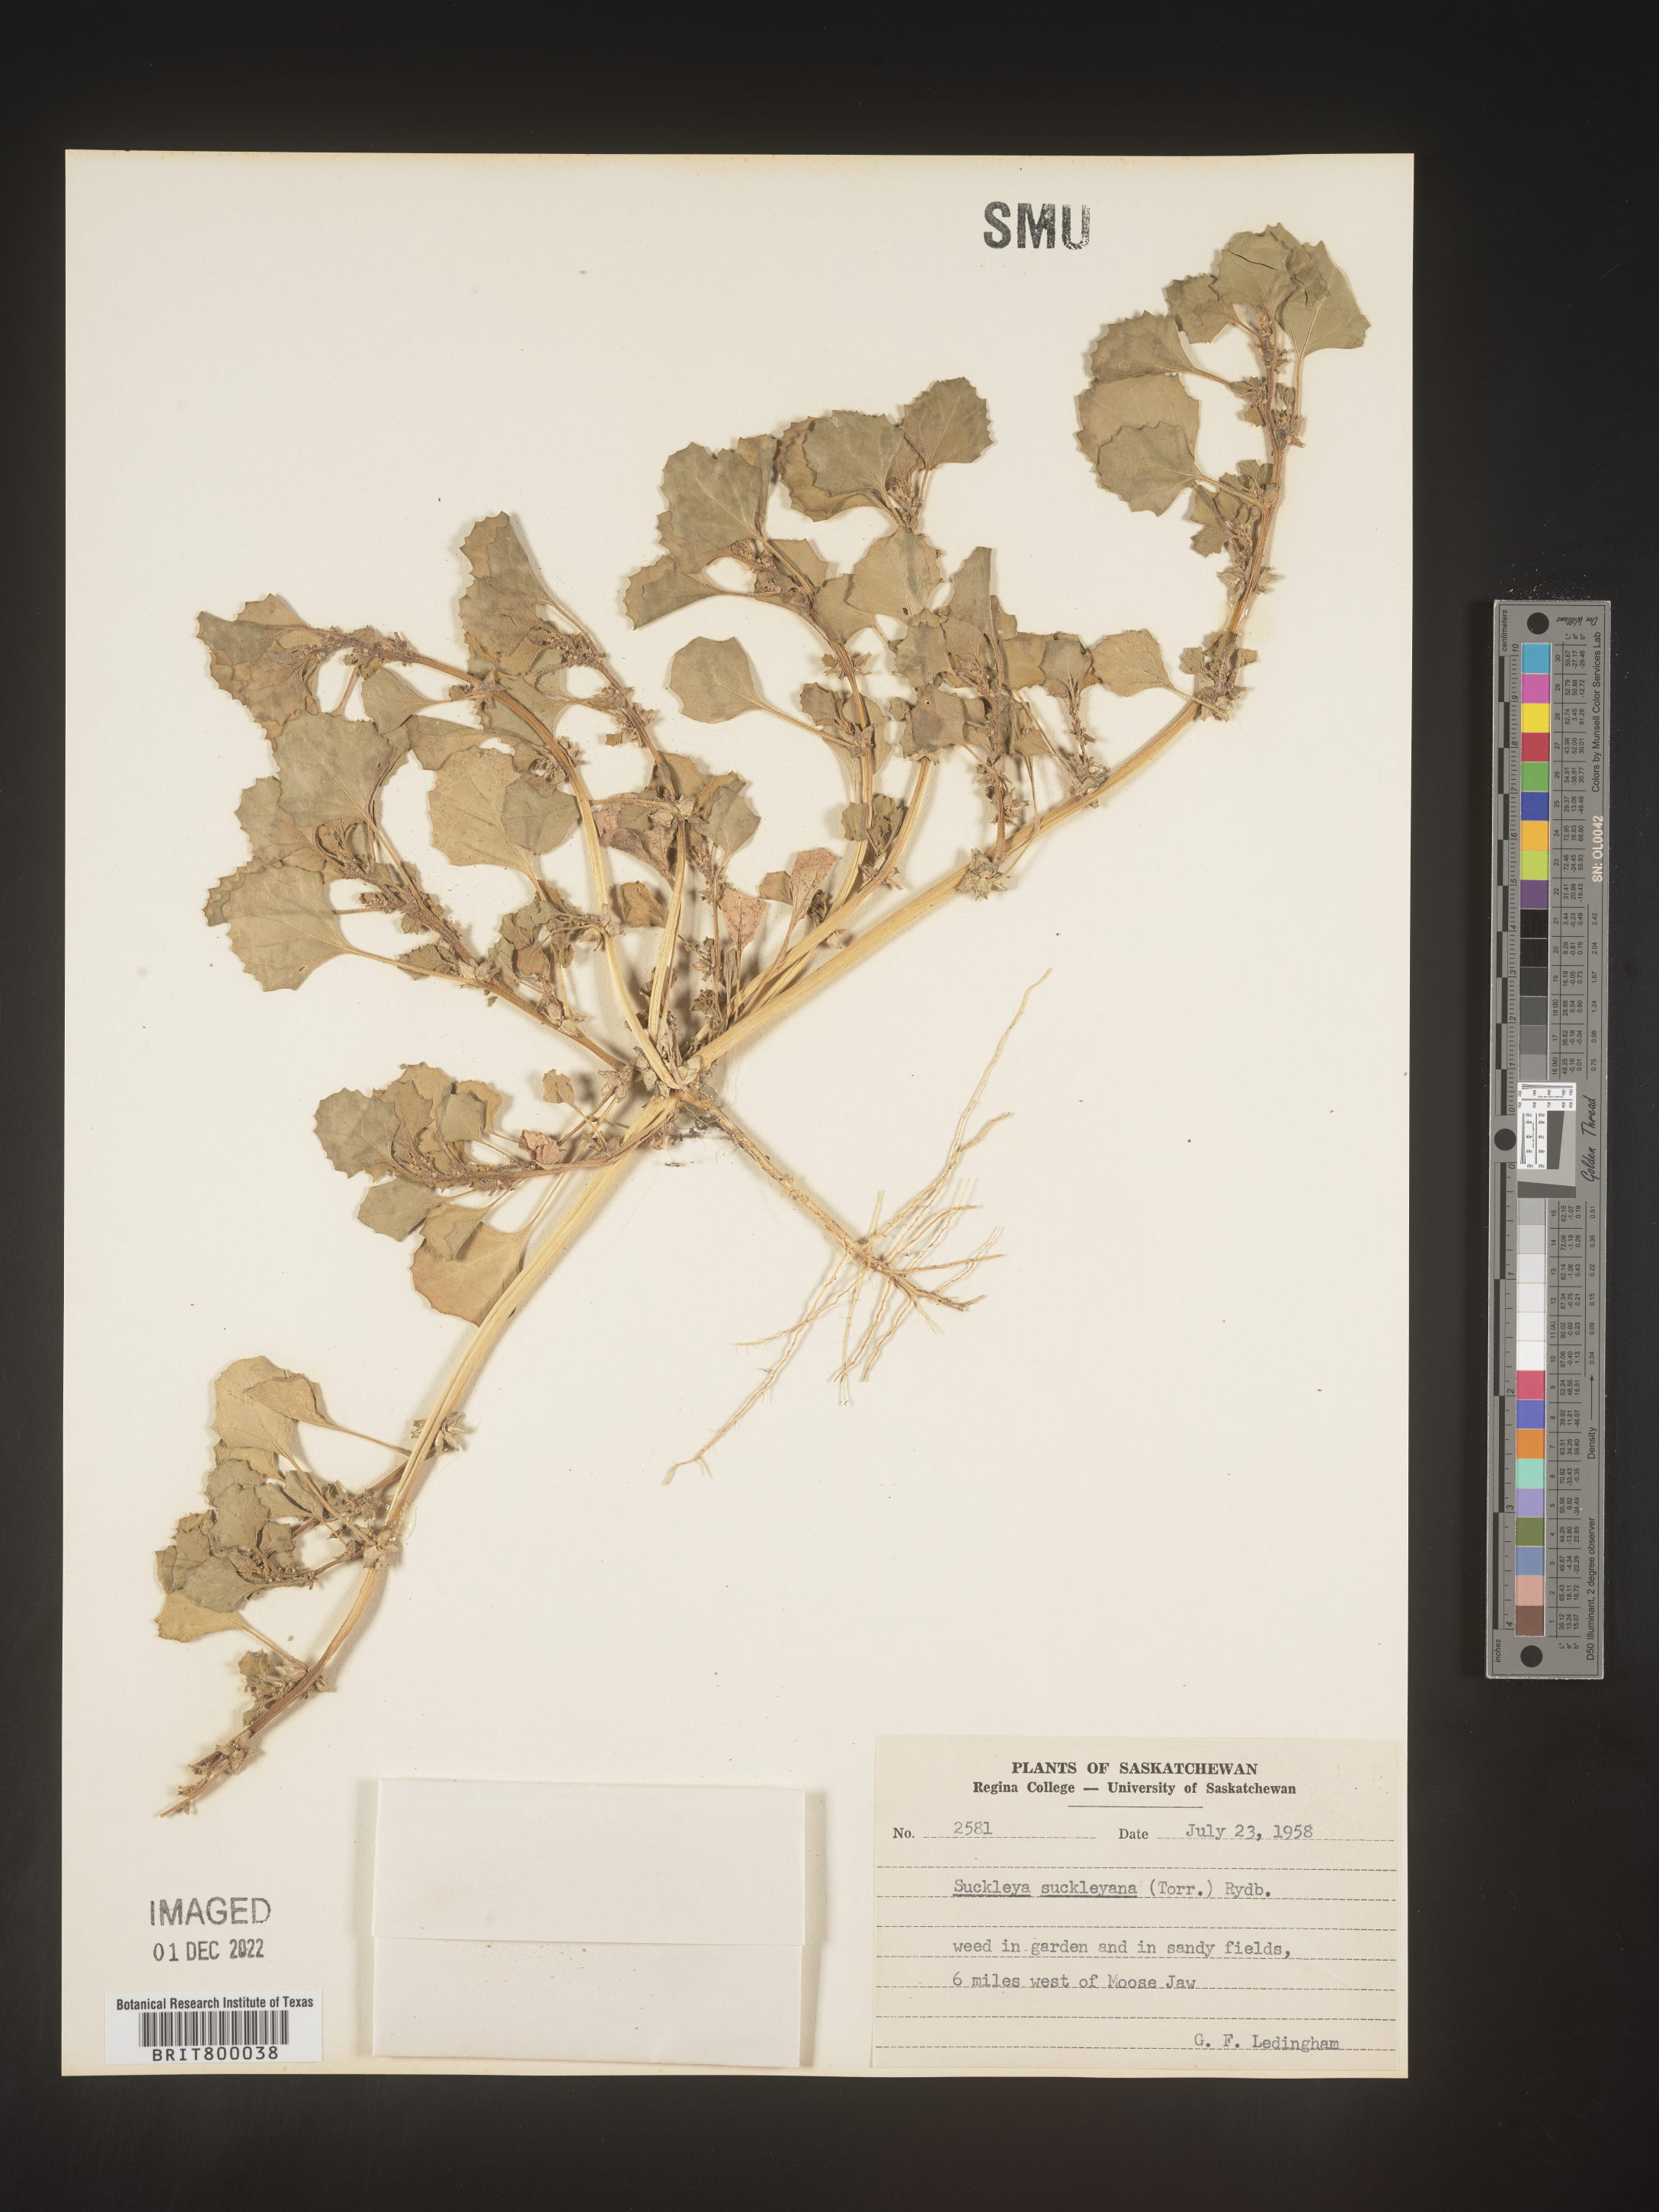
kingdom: Plantae
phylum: Tracheophyta
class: Magnoliopsida
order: Caryophyllales
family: Amaranthaceae
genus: Suckleya
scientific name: Suckleya suckleyana
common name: Poison suckleya
